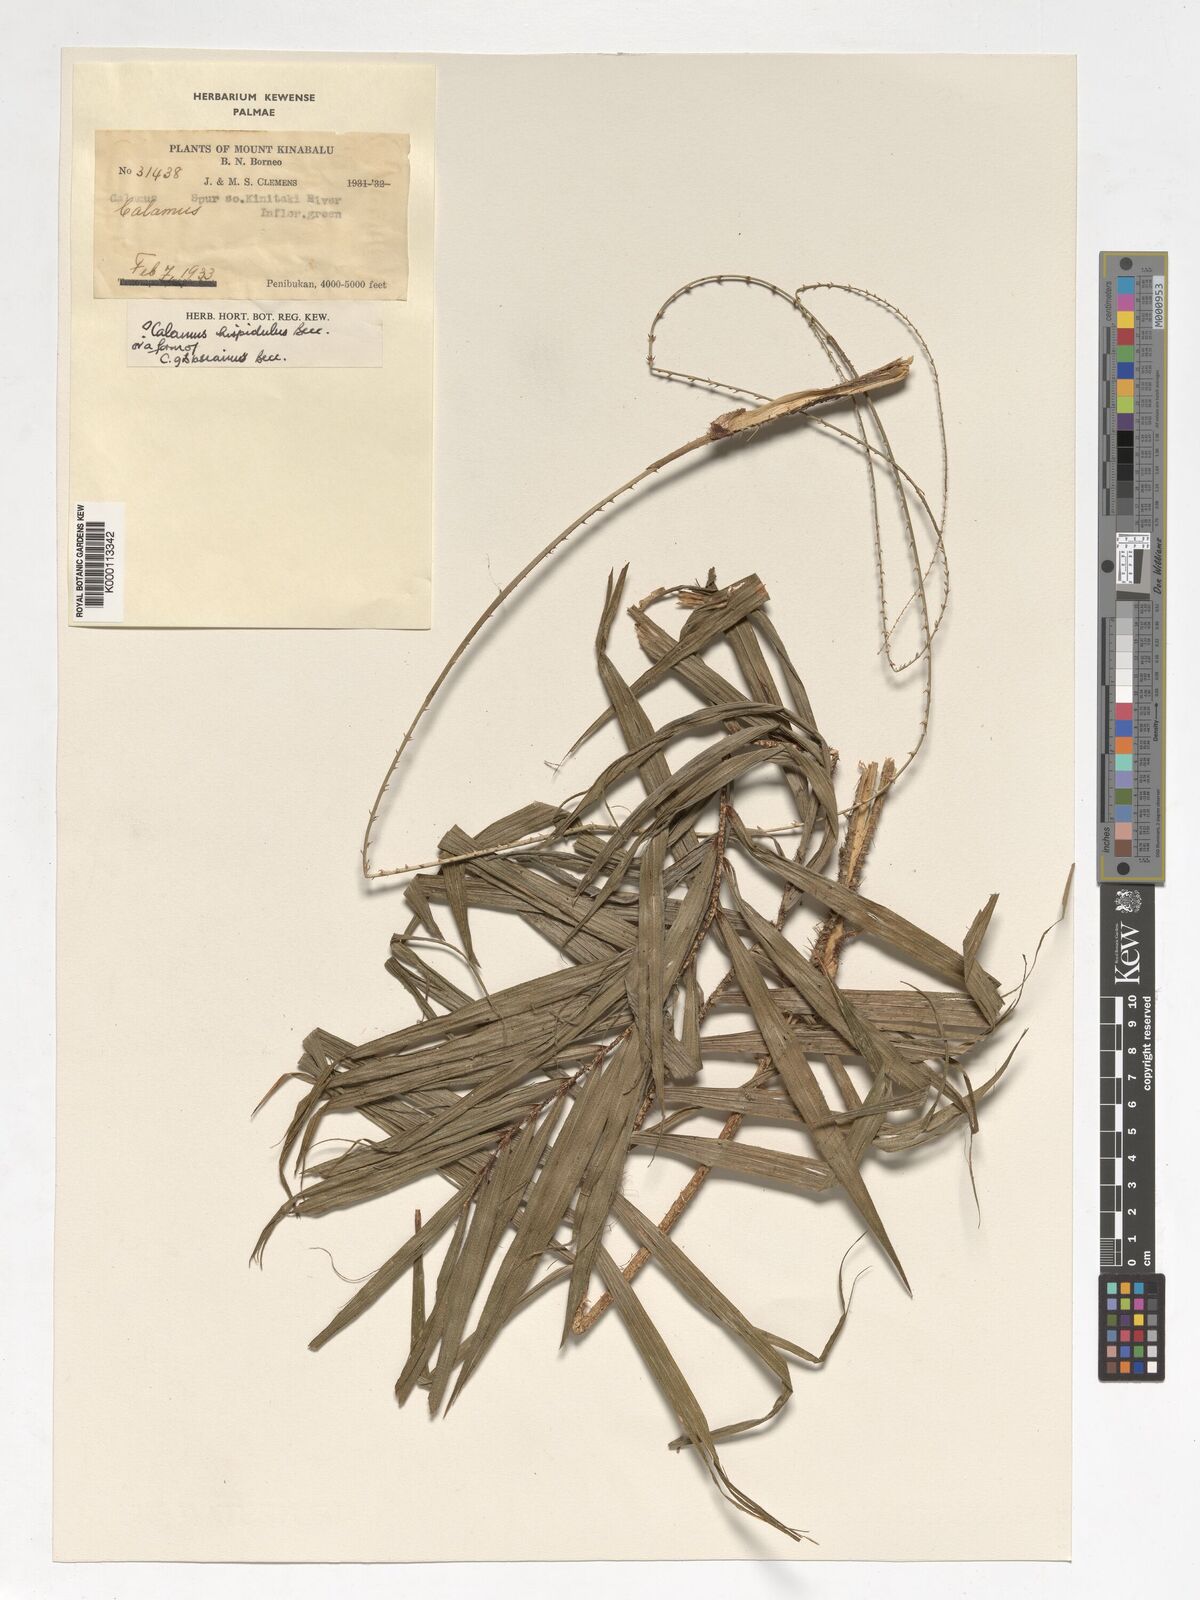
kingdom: Plantae
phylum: Tracheophyta
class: Liliopsida
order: Arecales
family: Arecaceae
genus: Calamus
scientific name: Calamus gibbsianus
